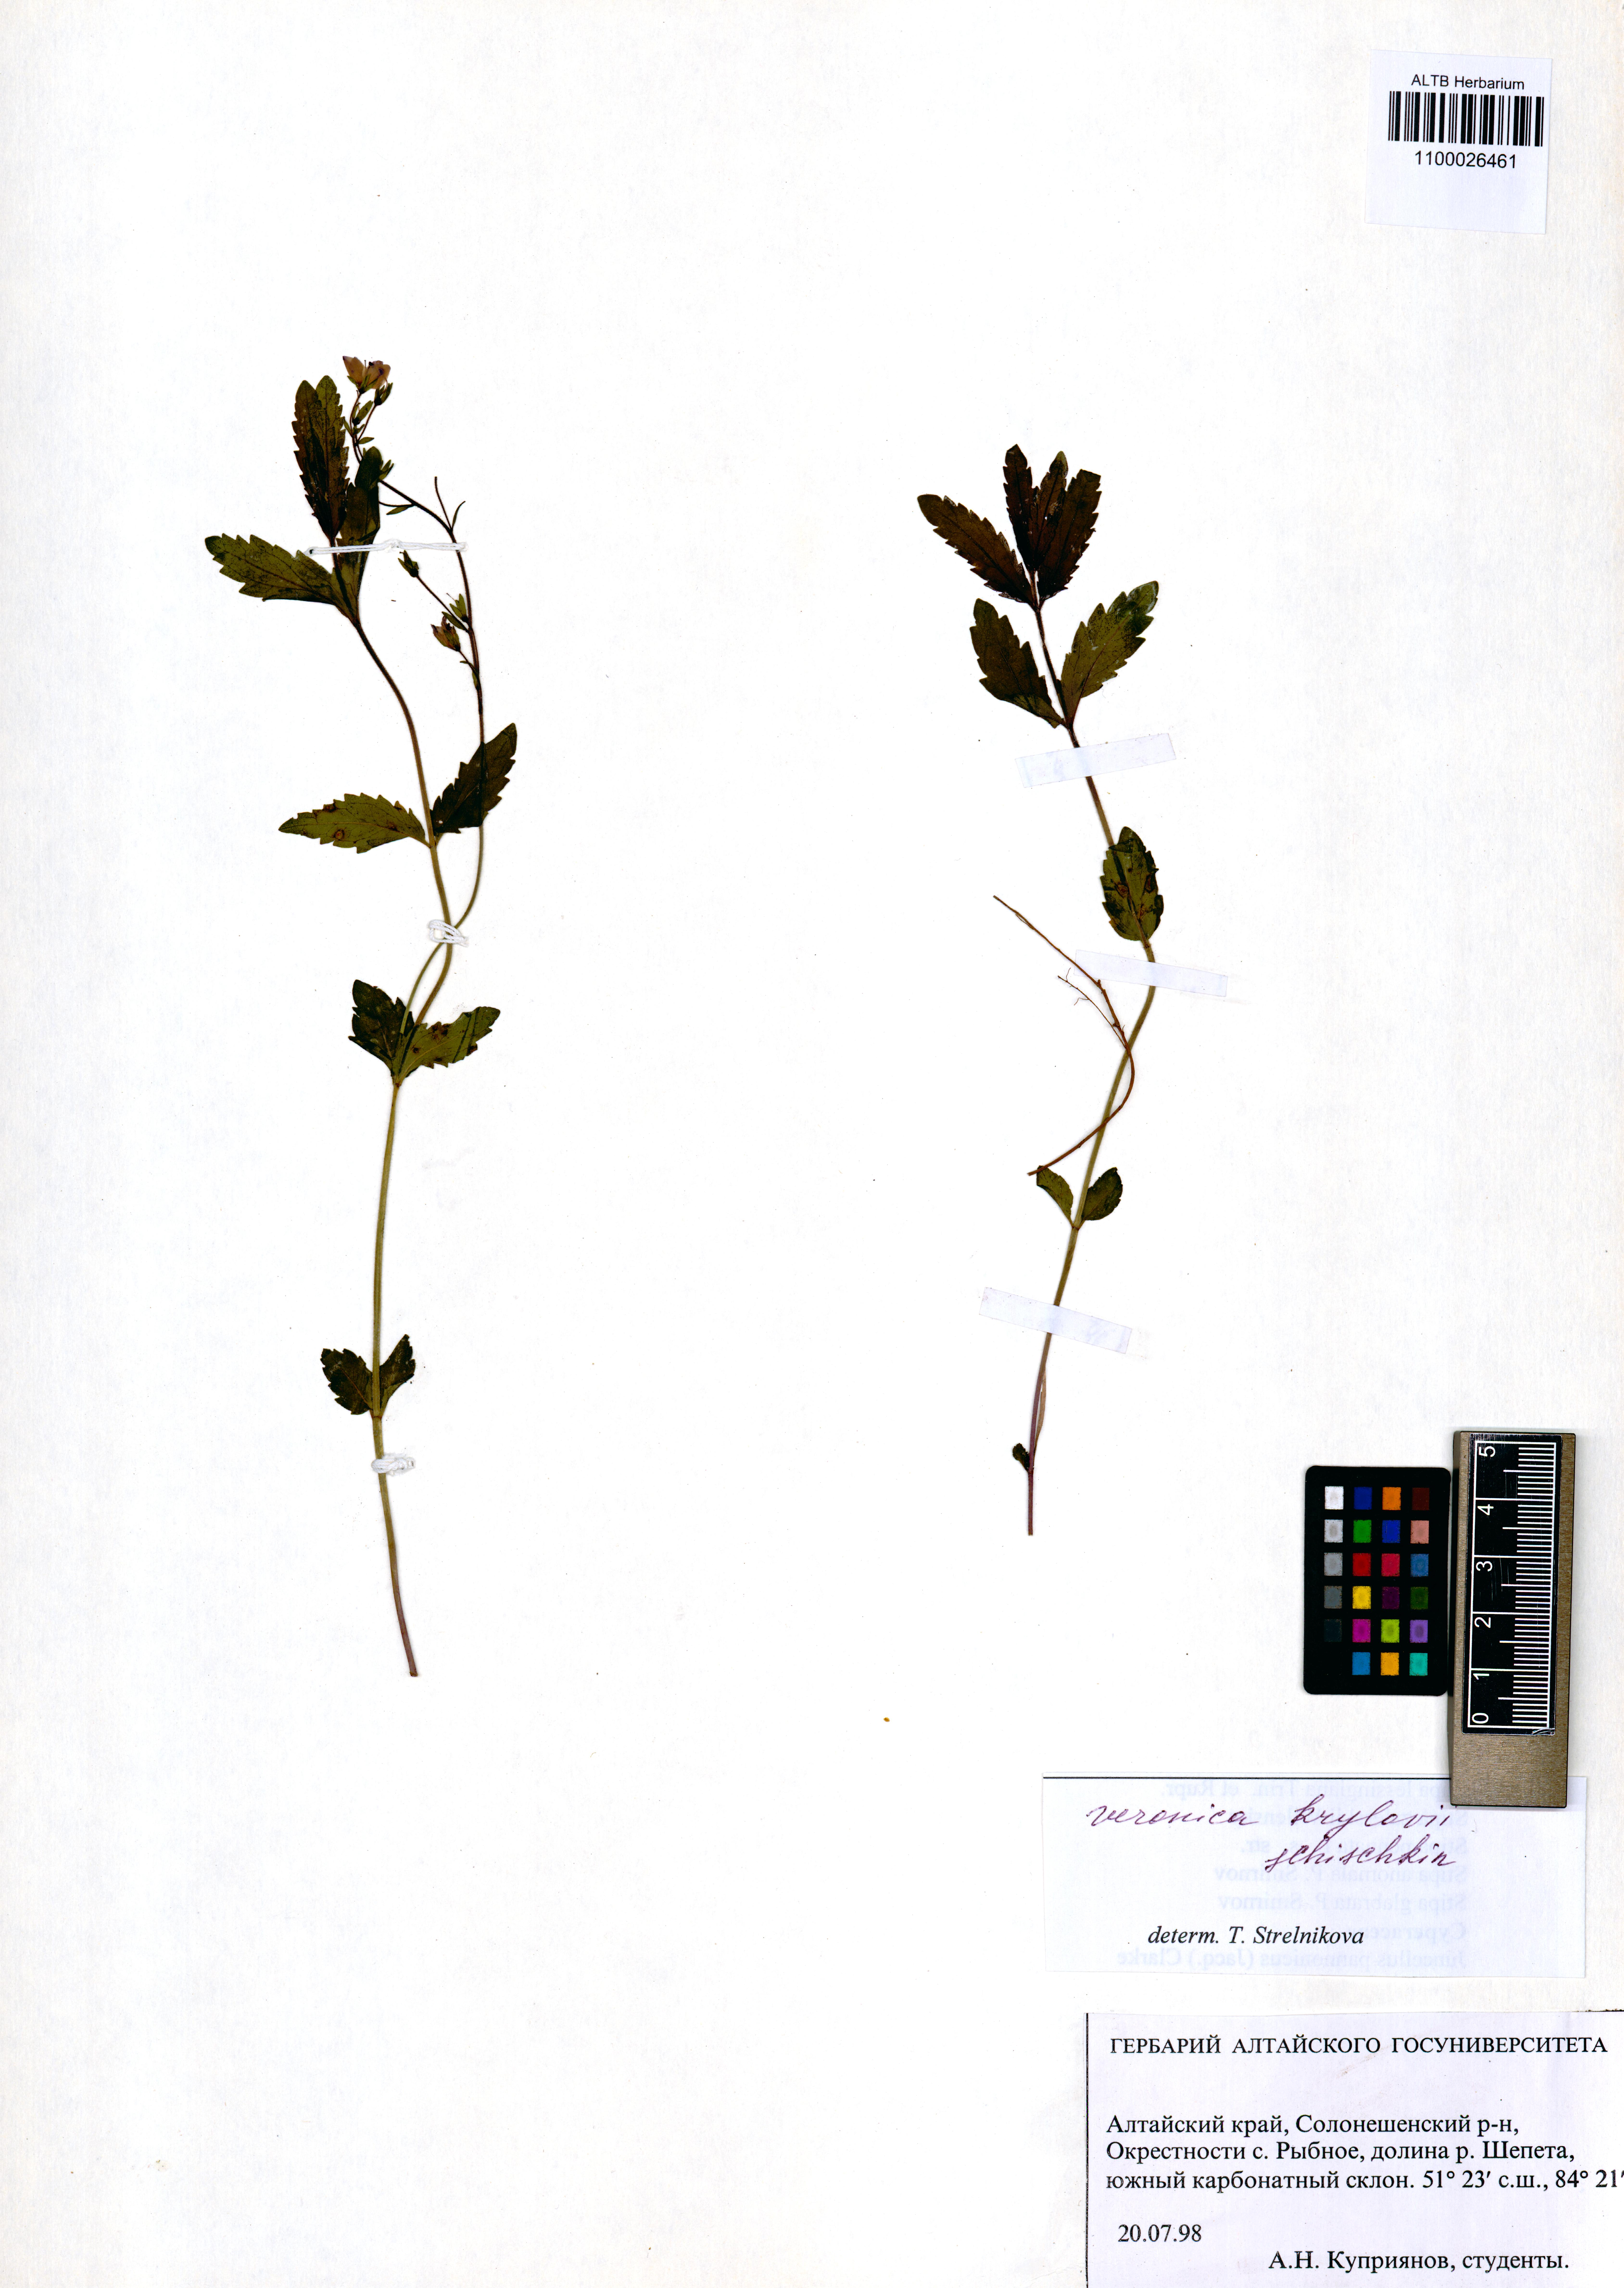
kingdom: Plantae
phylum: Tracheophyta
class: Magnoliopsida
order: Lamiales
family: Plantaginaceae
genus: Veronica
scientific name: Veronica krylovii
